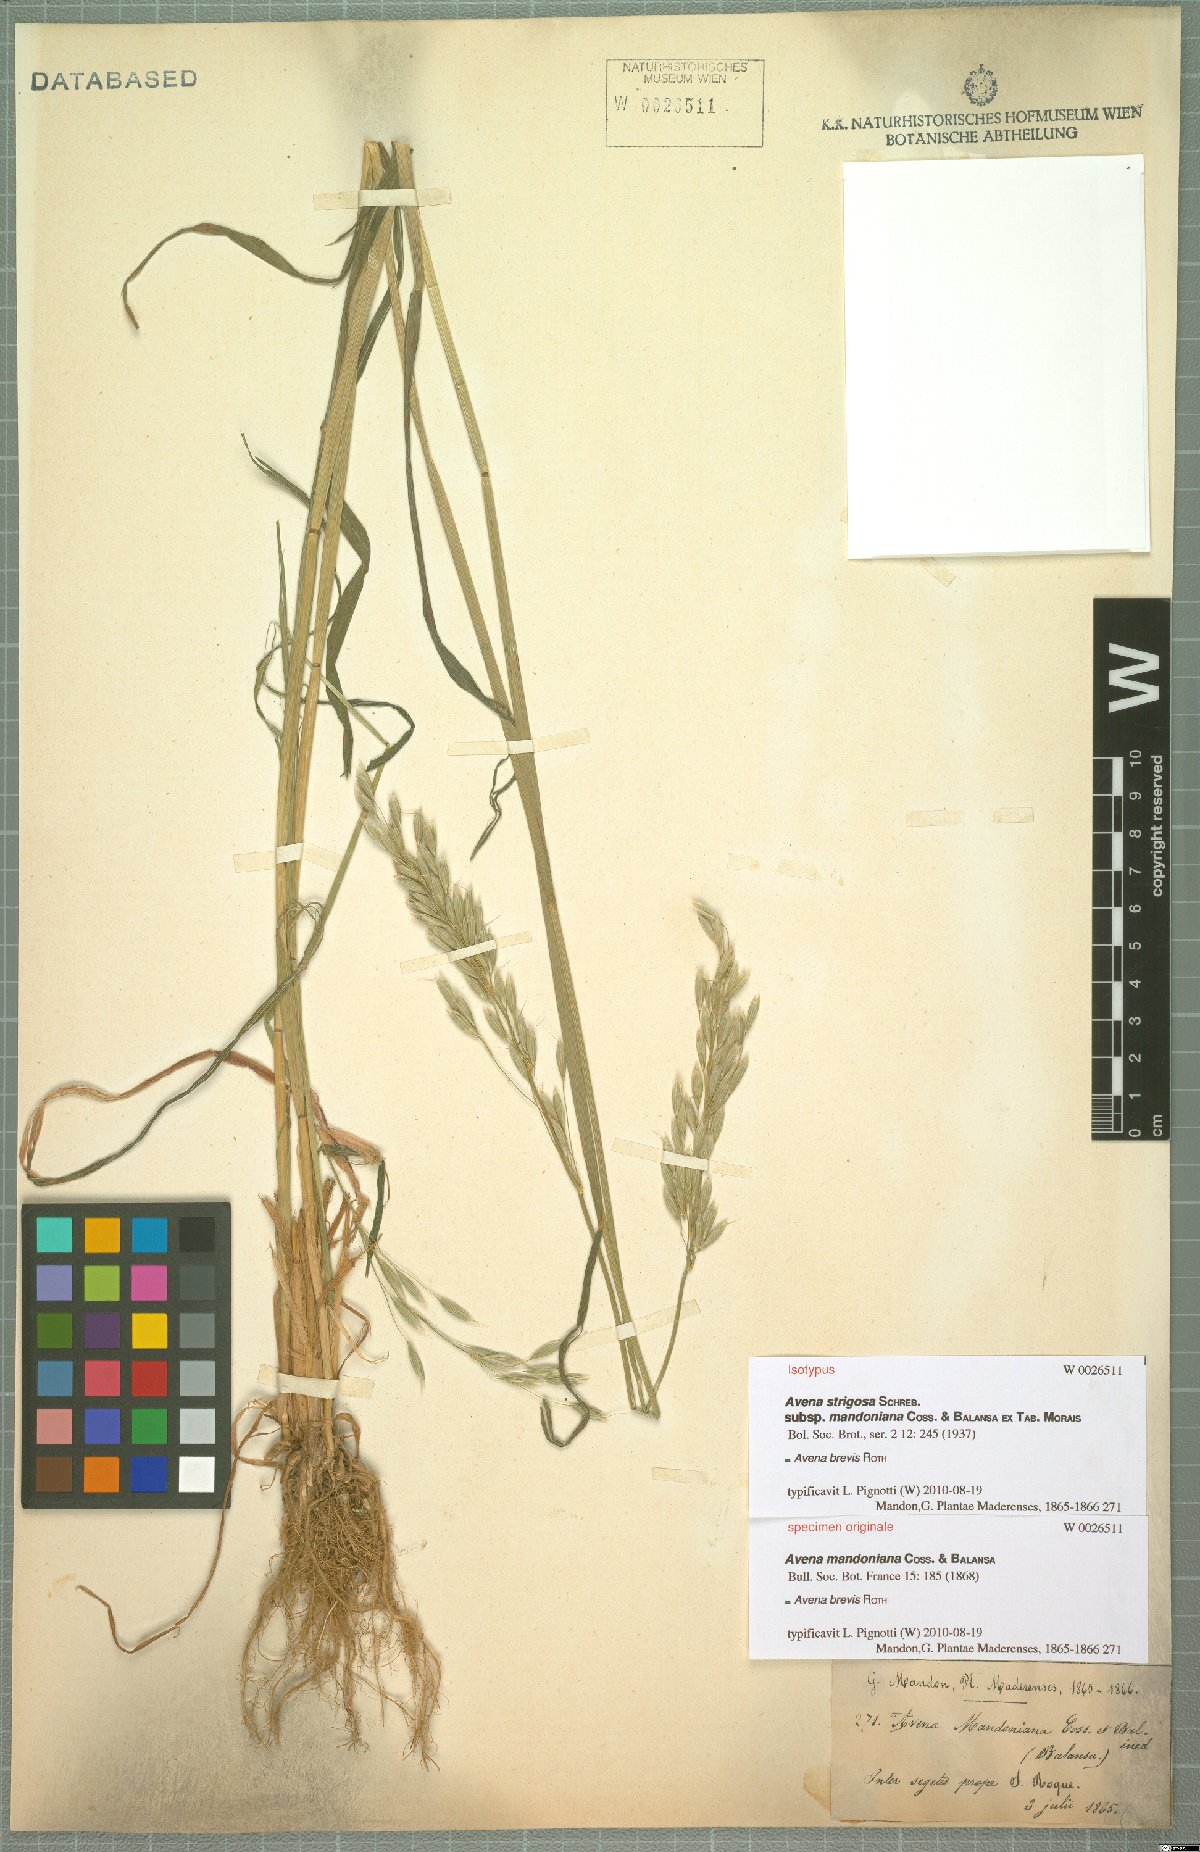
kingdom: Plantae
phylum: Tracheophyta
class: Liliopsida
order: Poales
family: Poaceae
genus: Avena
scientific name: Avena brevis
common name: Short oat
